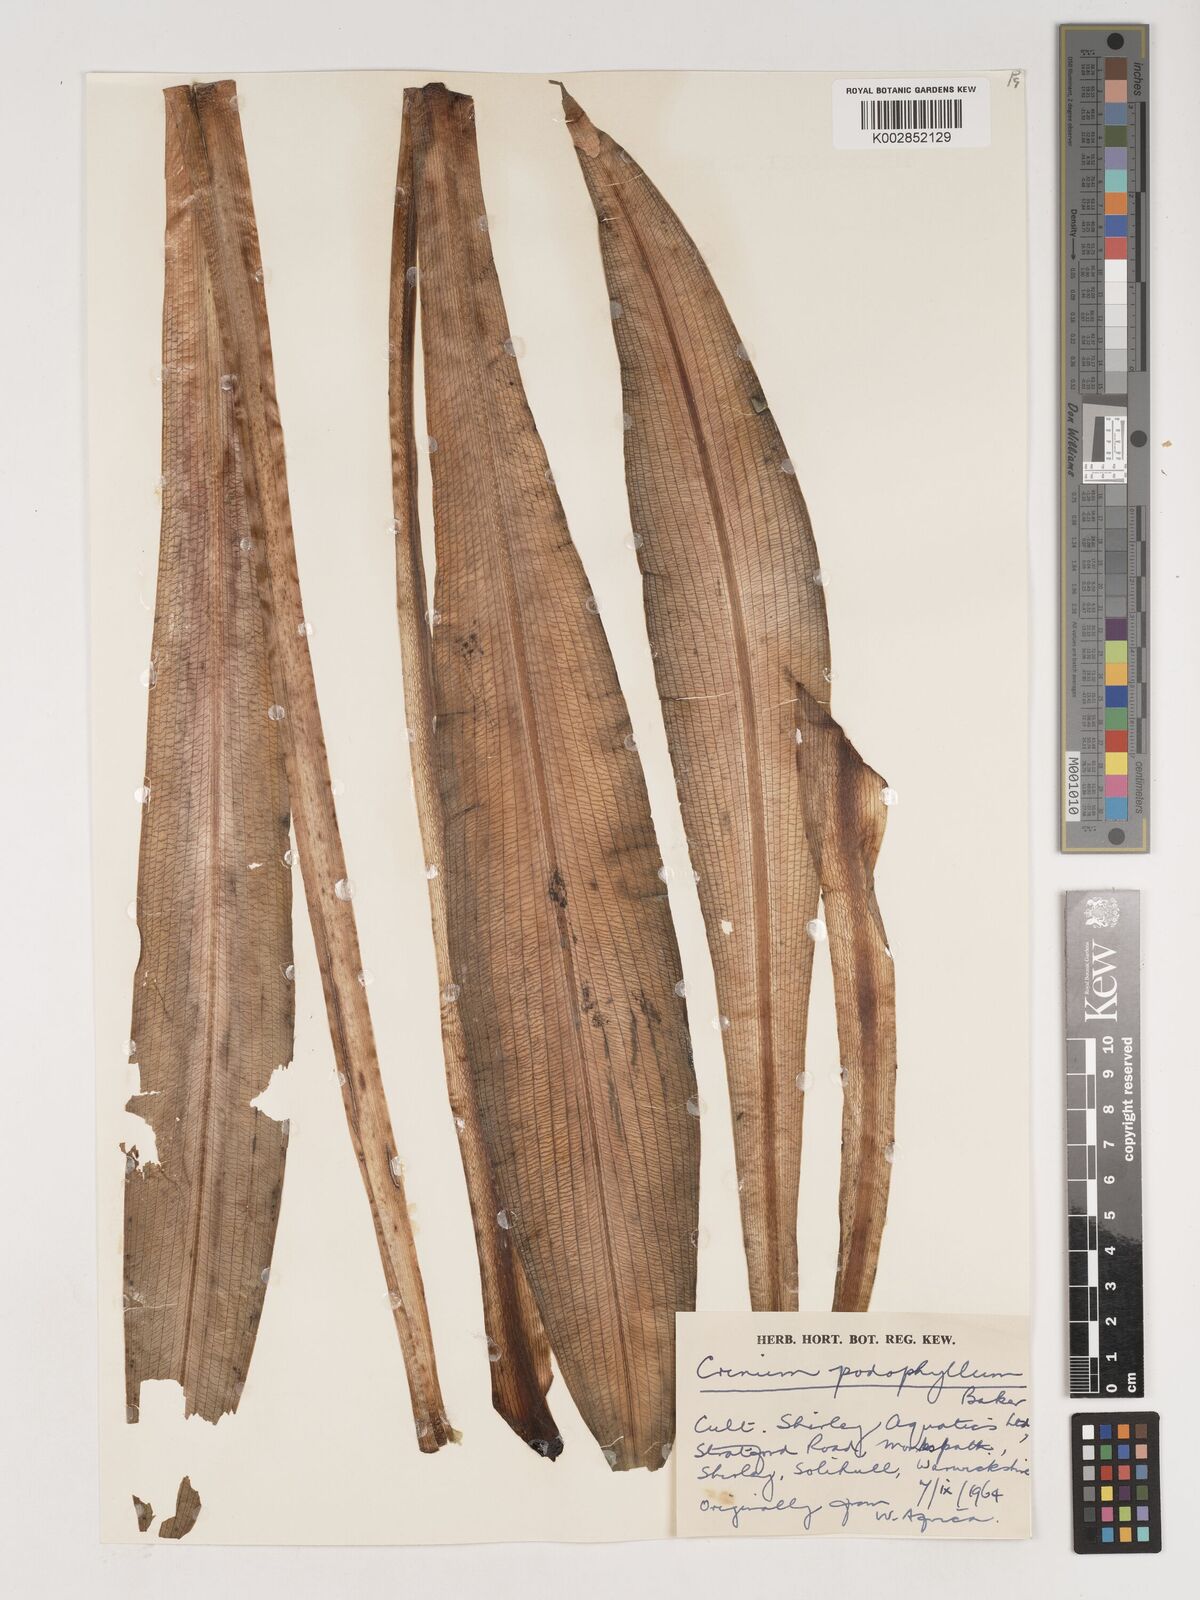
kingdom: Plantae
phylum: Tracheophyta
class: Liliopsida
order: Asparagales
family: Amaryllidaceae
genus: Crinum
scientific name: Crinum jagus
